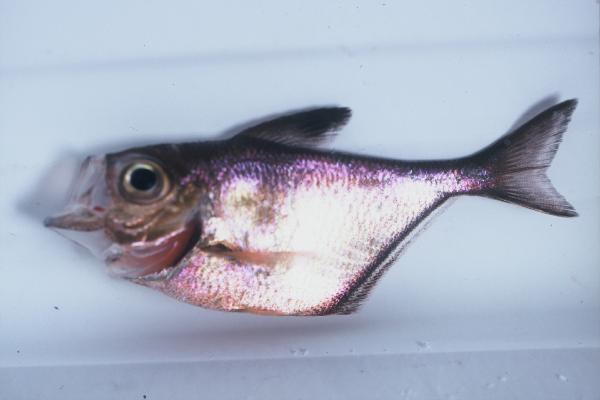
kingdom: Animalia
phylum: Chordata
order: Perciformes
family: Pempheridae
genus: Pempheris
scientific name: Pempheris tominagai
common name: Black-stripe sweeper
